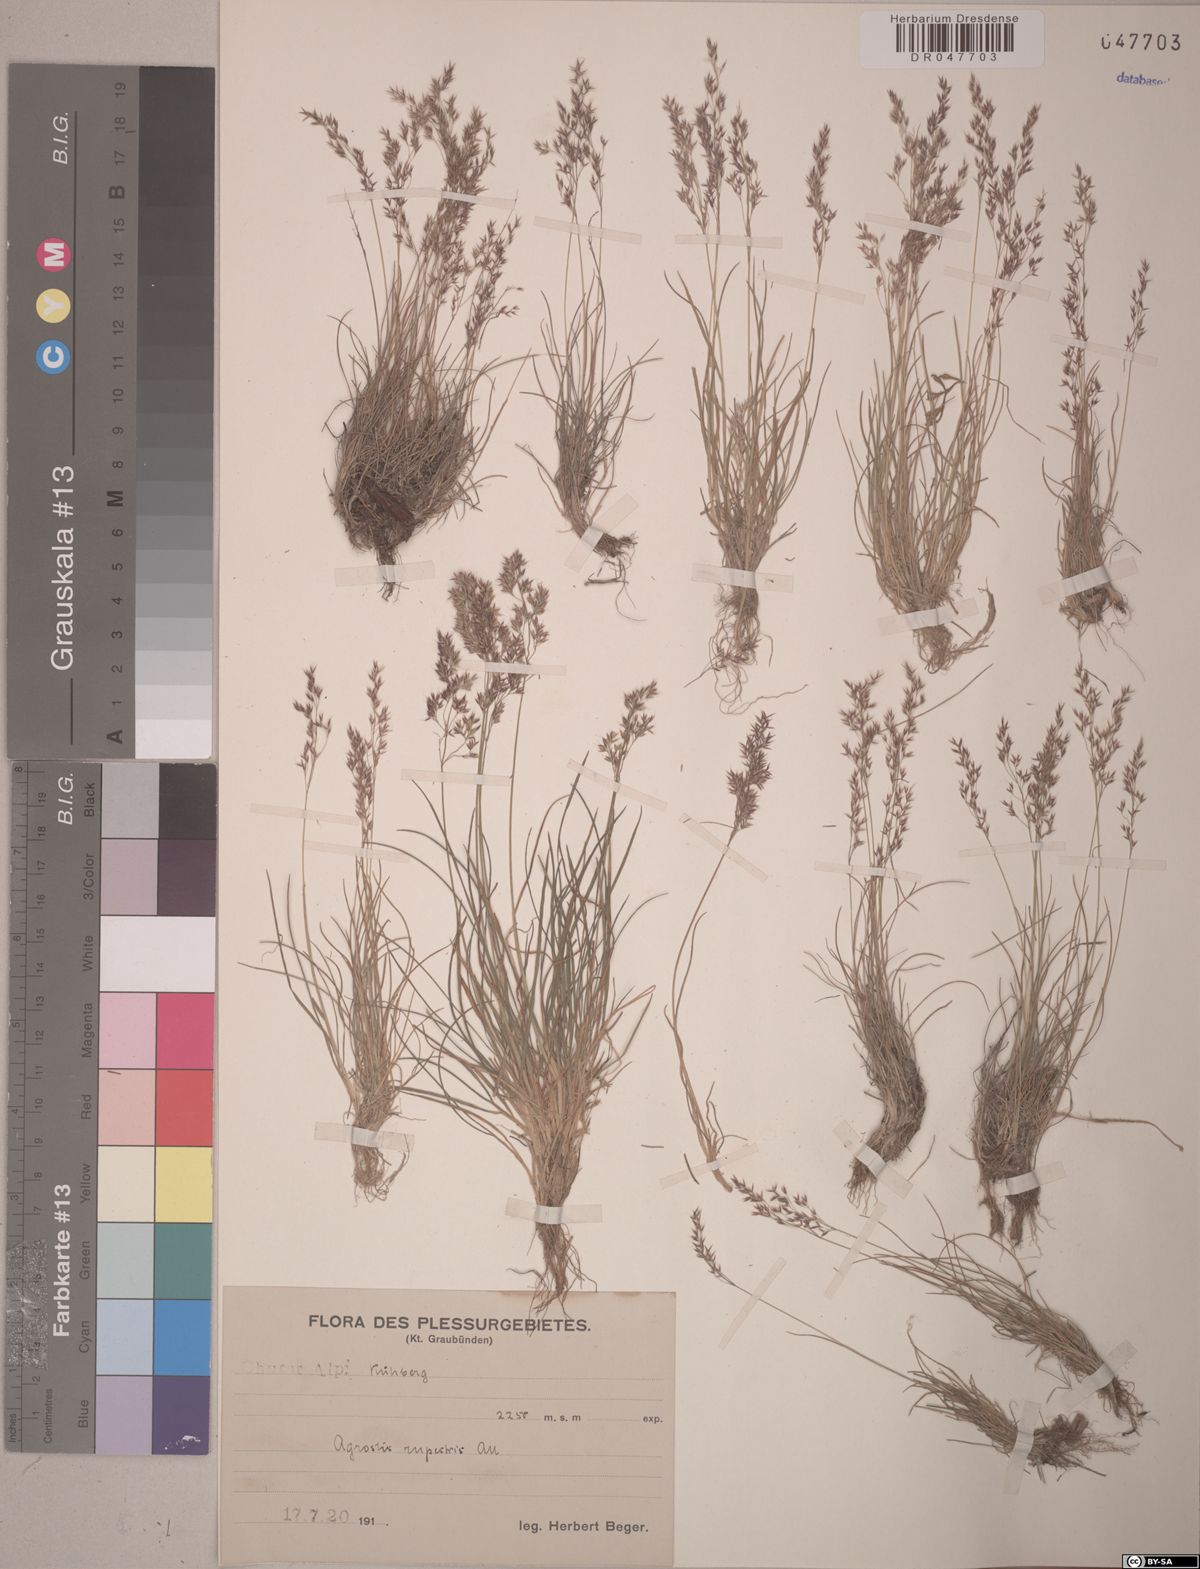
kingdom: Plantae
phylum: Tracheophyta
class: Liliopsida
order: Poales
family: Poaceae
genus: Agrostis
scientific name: Agrostis rupestris
